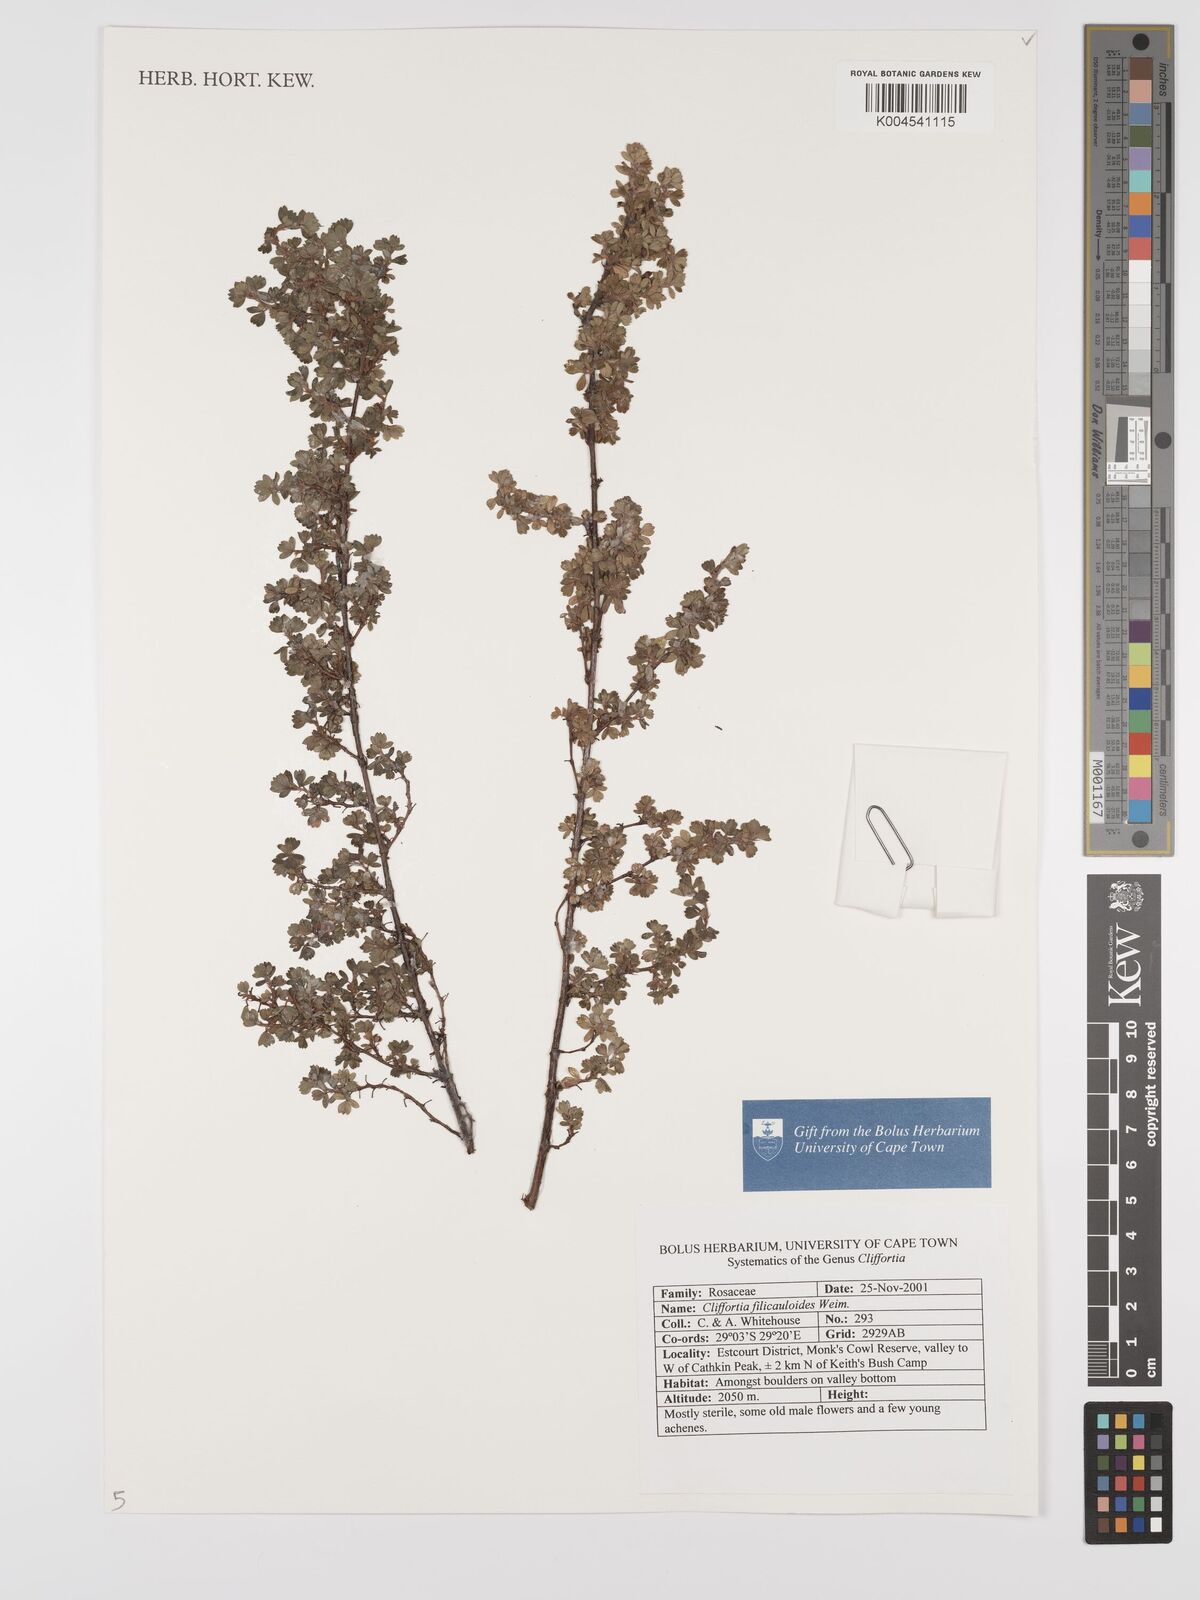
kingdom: Plantae
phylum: Tracheophyta
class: Magnoliopsida
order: Rosales
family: Rosaceae
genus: Cliffortia
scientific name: Cliffortia filicauloides
